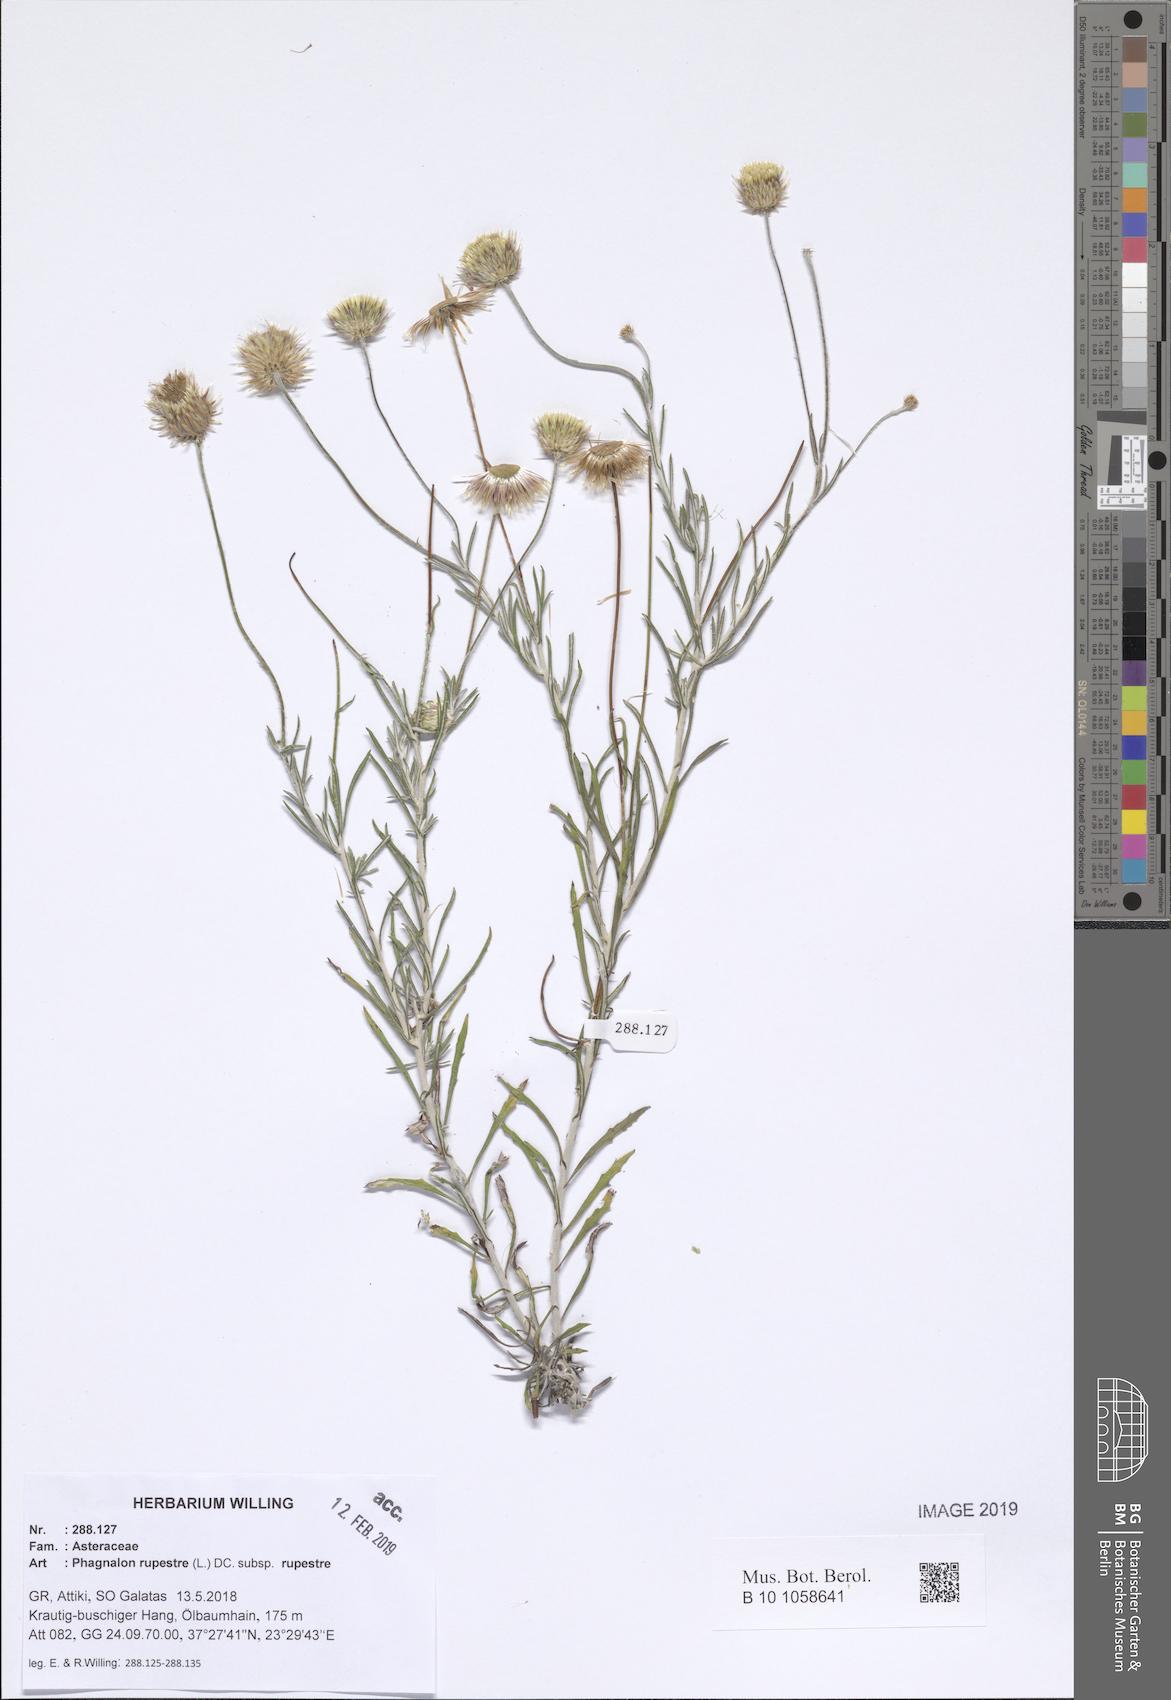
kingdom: Plantae
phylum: Tracheophyta
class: Magnoliopsida
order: Asterales
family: Asteraceae
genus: Phagnalon
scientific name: Phagnalon rupestre
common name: Rock phagnalon
